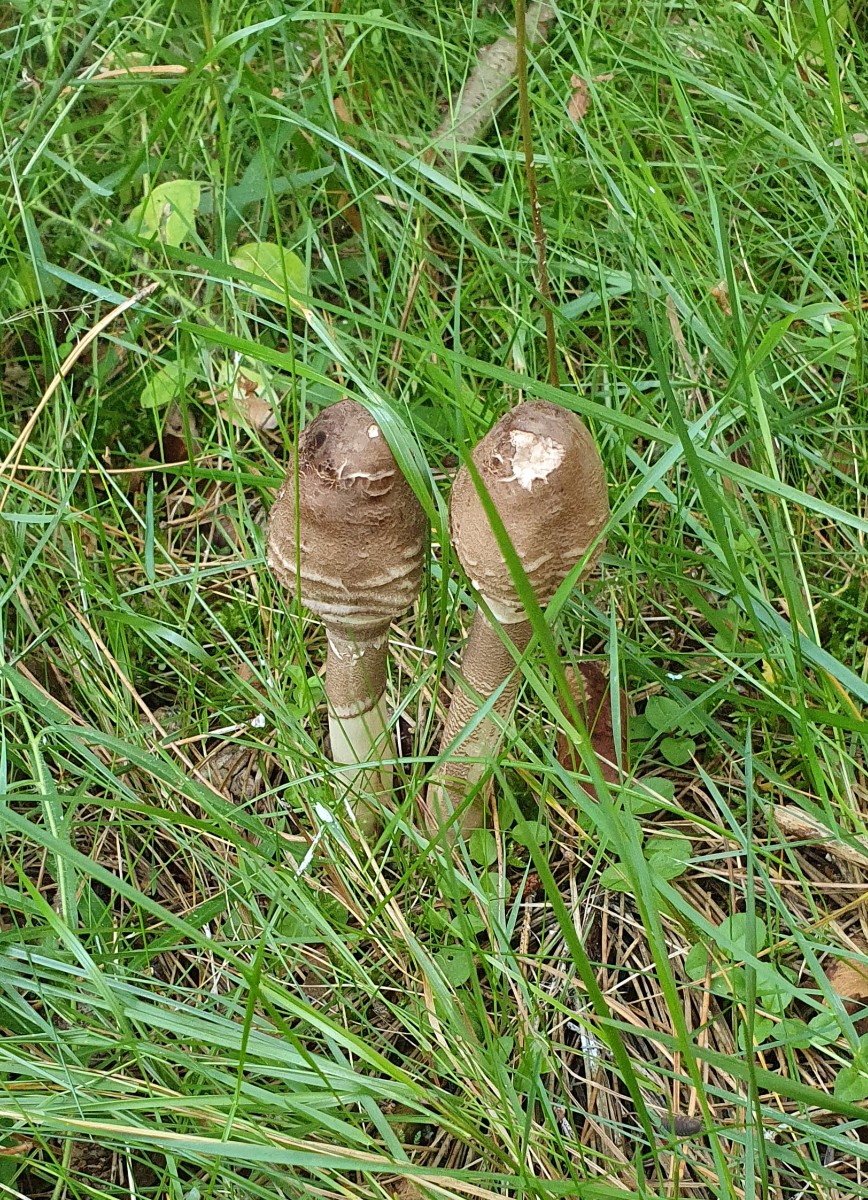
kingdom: Fungi
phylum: Basidiomycota
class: Agaricomycetes
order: Agaricales
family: Agaricaceae
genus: Macrolepiota
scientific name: Macrolepiota procera
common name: stor kæmpeparasolhat
